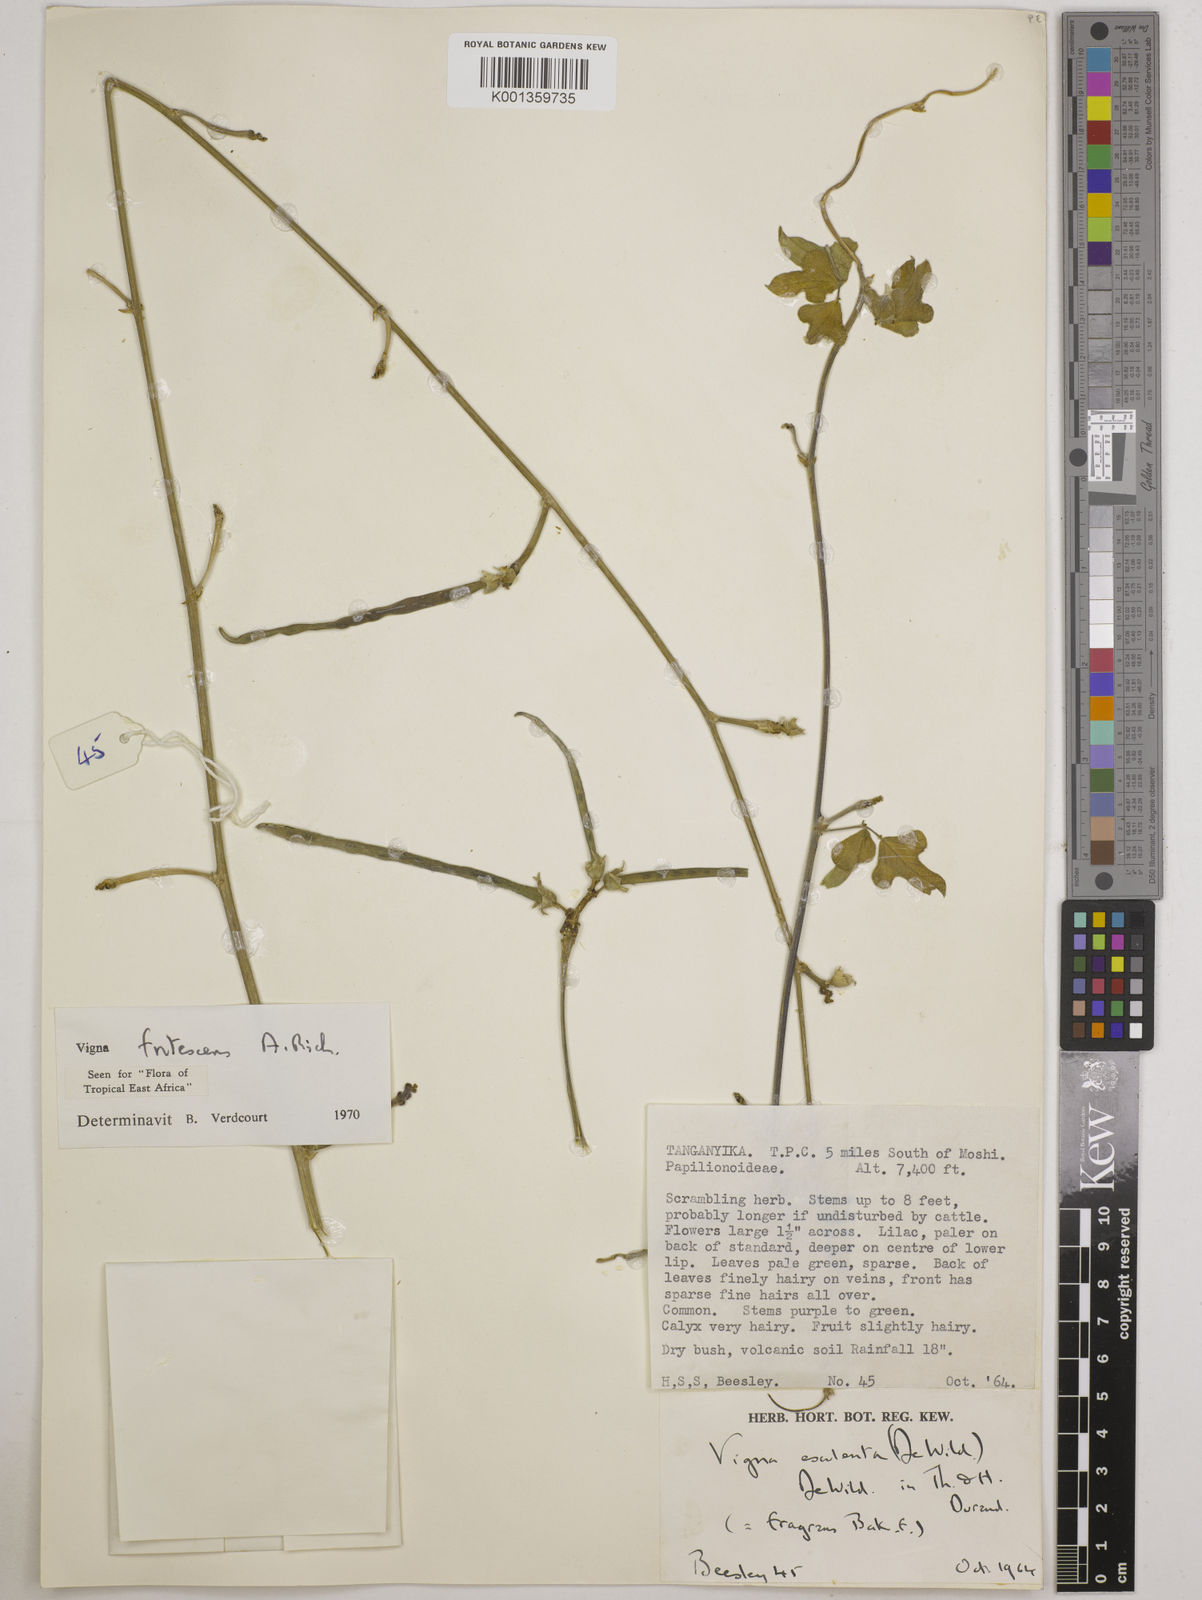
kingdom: Plantae
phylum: Tracheophyta
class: Magnoliopsida
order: Fabales
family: Fabaceae
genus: Vigna
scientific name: Vigna frutescens
